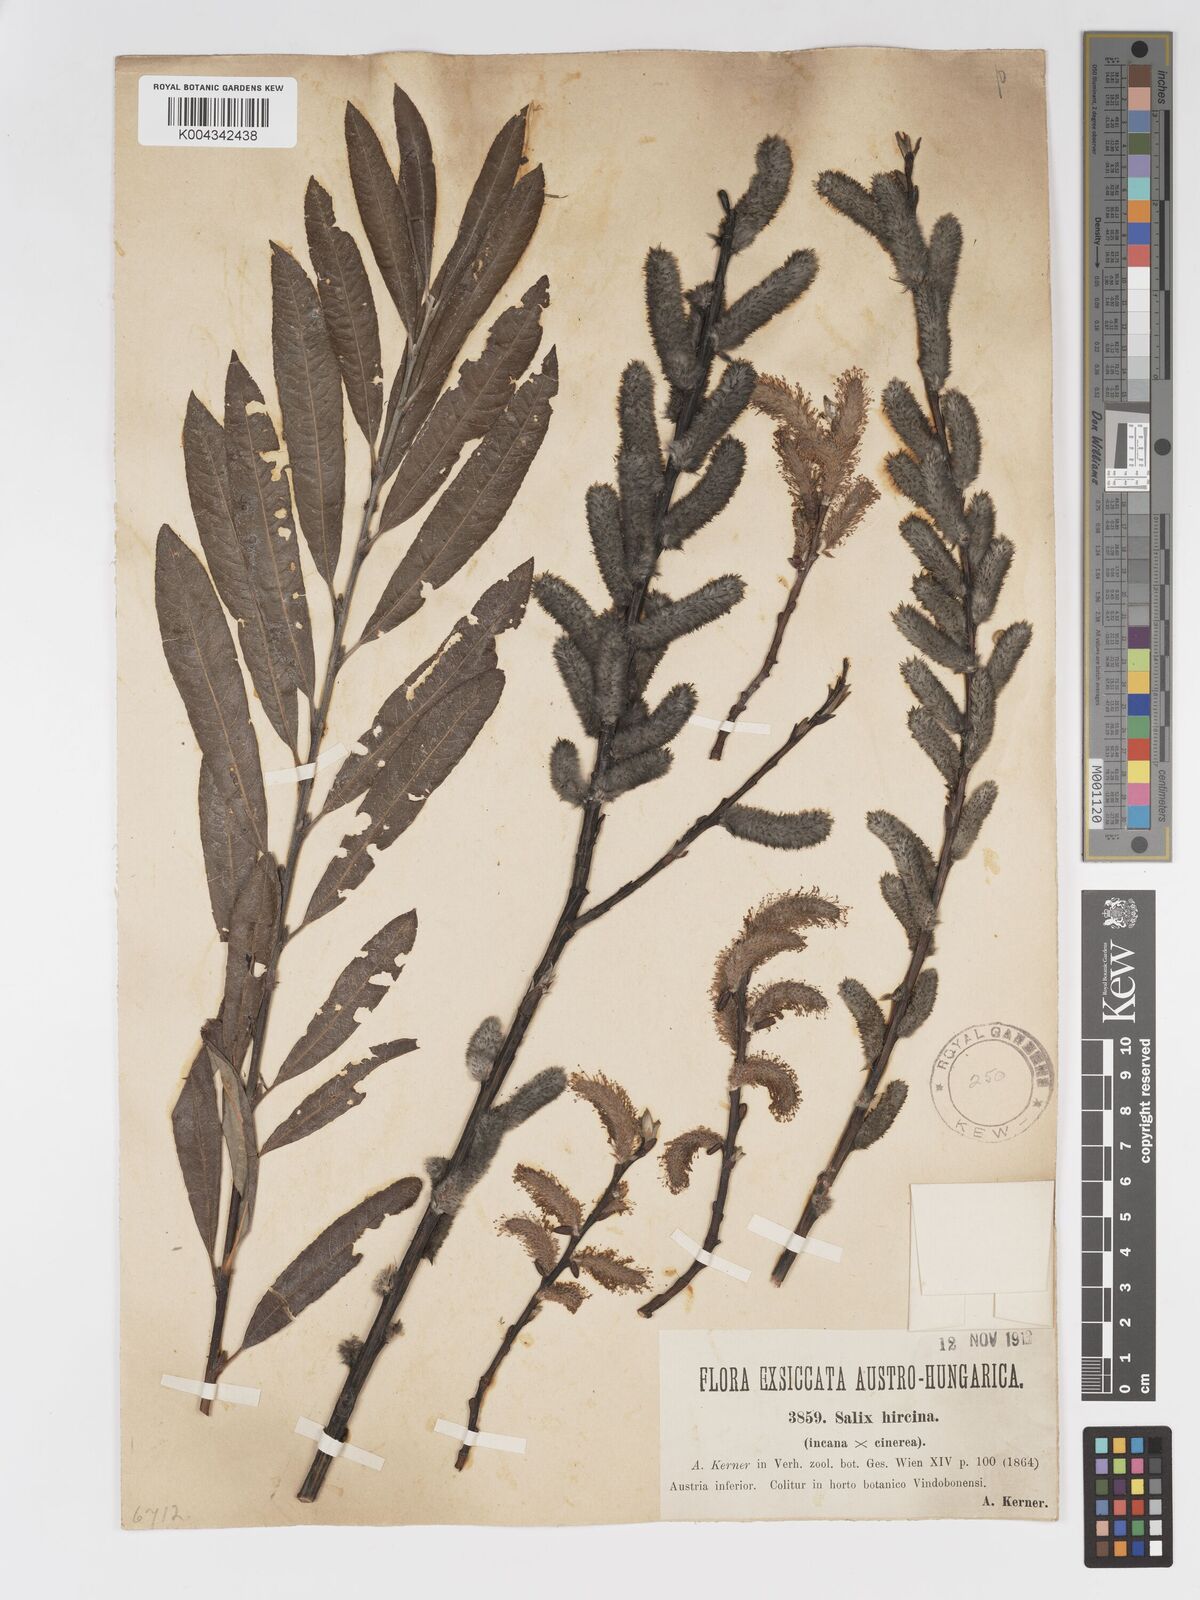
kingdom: Plantae
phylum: Tracheophyta
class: Magnoliopsida
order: Malpighiales
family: Salicaceae
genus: Salix
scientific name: Salix
